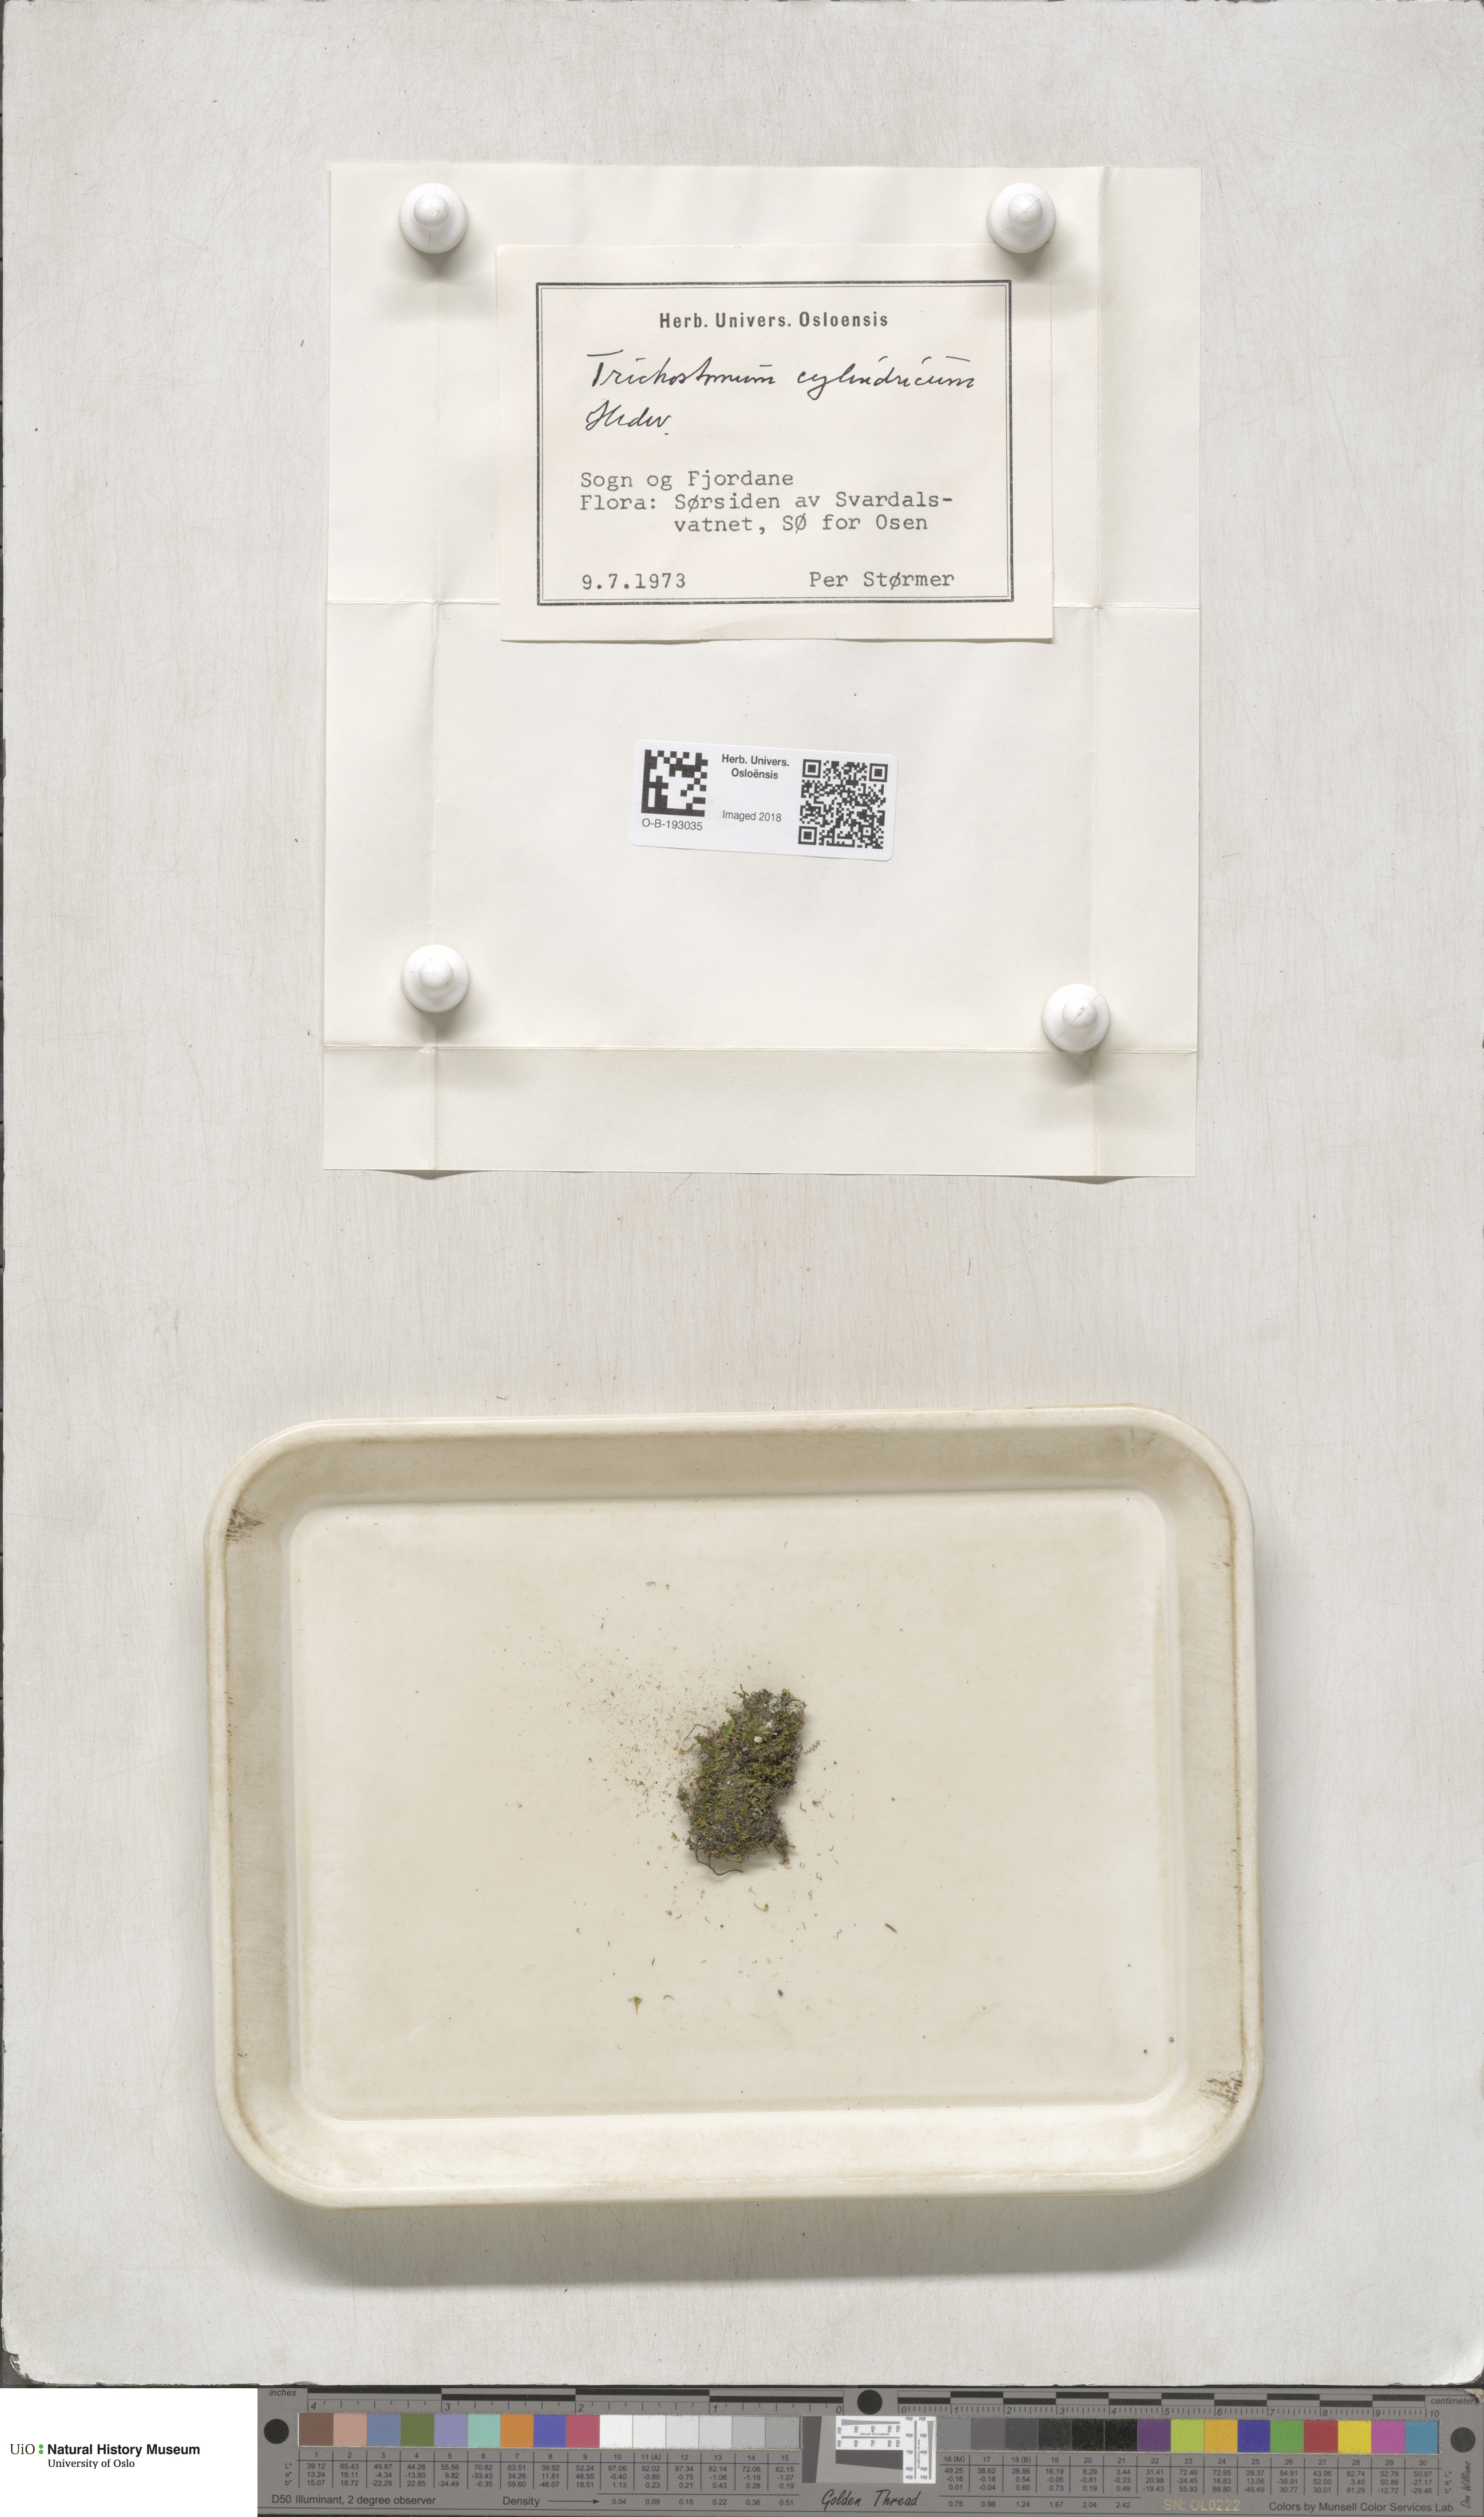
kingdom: Plantae
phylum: Bryophyta
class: Bryopsida
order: Pottiales
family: Pottiaceae
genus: Chionoloma
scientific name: Chionoloma tenuirostre
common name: Narrow-fruited crisp-moss
